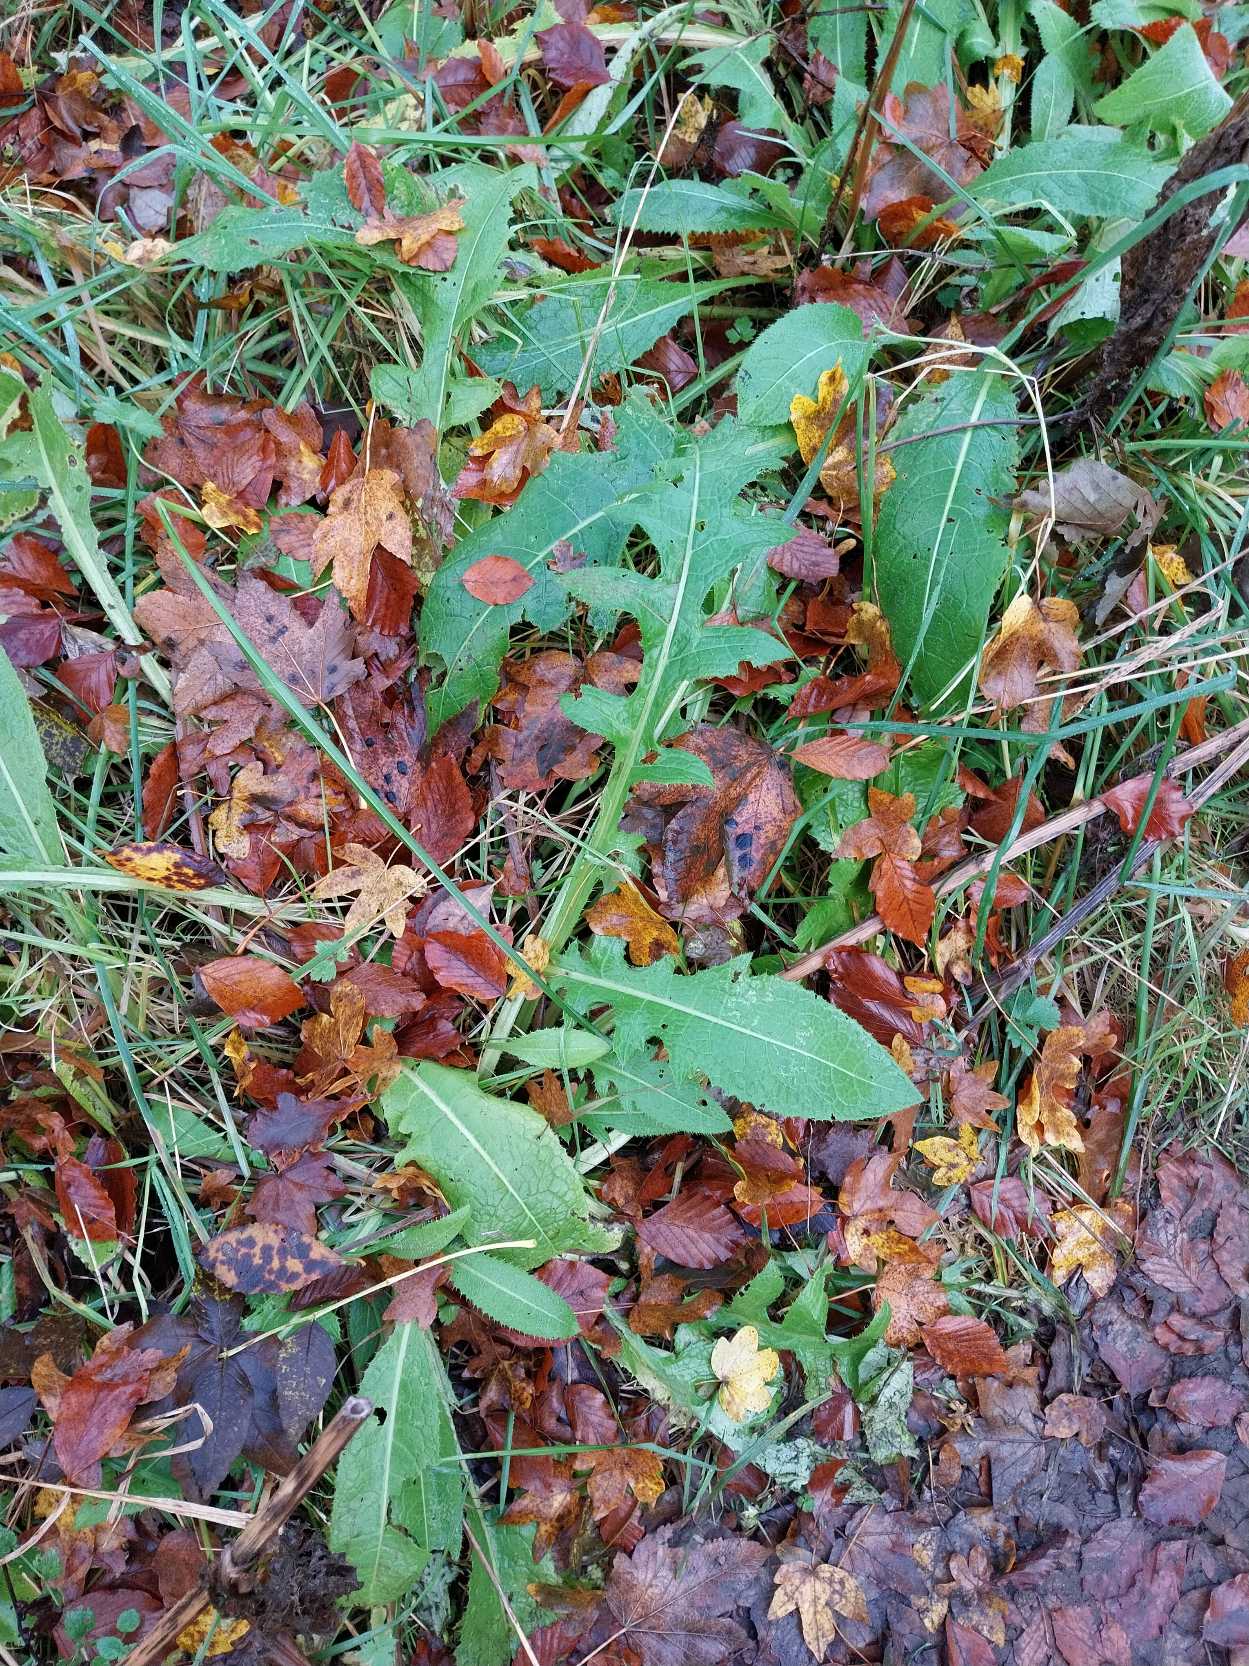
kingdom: Plantae
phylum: Tracheophyta
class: Magnoliopsida
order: Asterales
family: Asteraceae
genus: Cirsium
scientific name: Cirsium oleraceum
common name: Kål-tidsel
